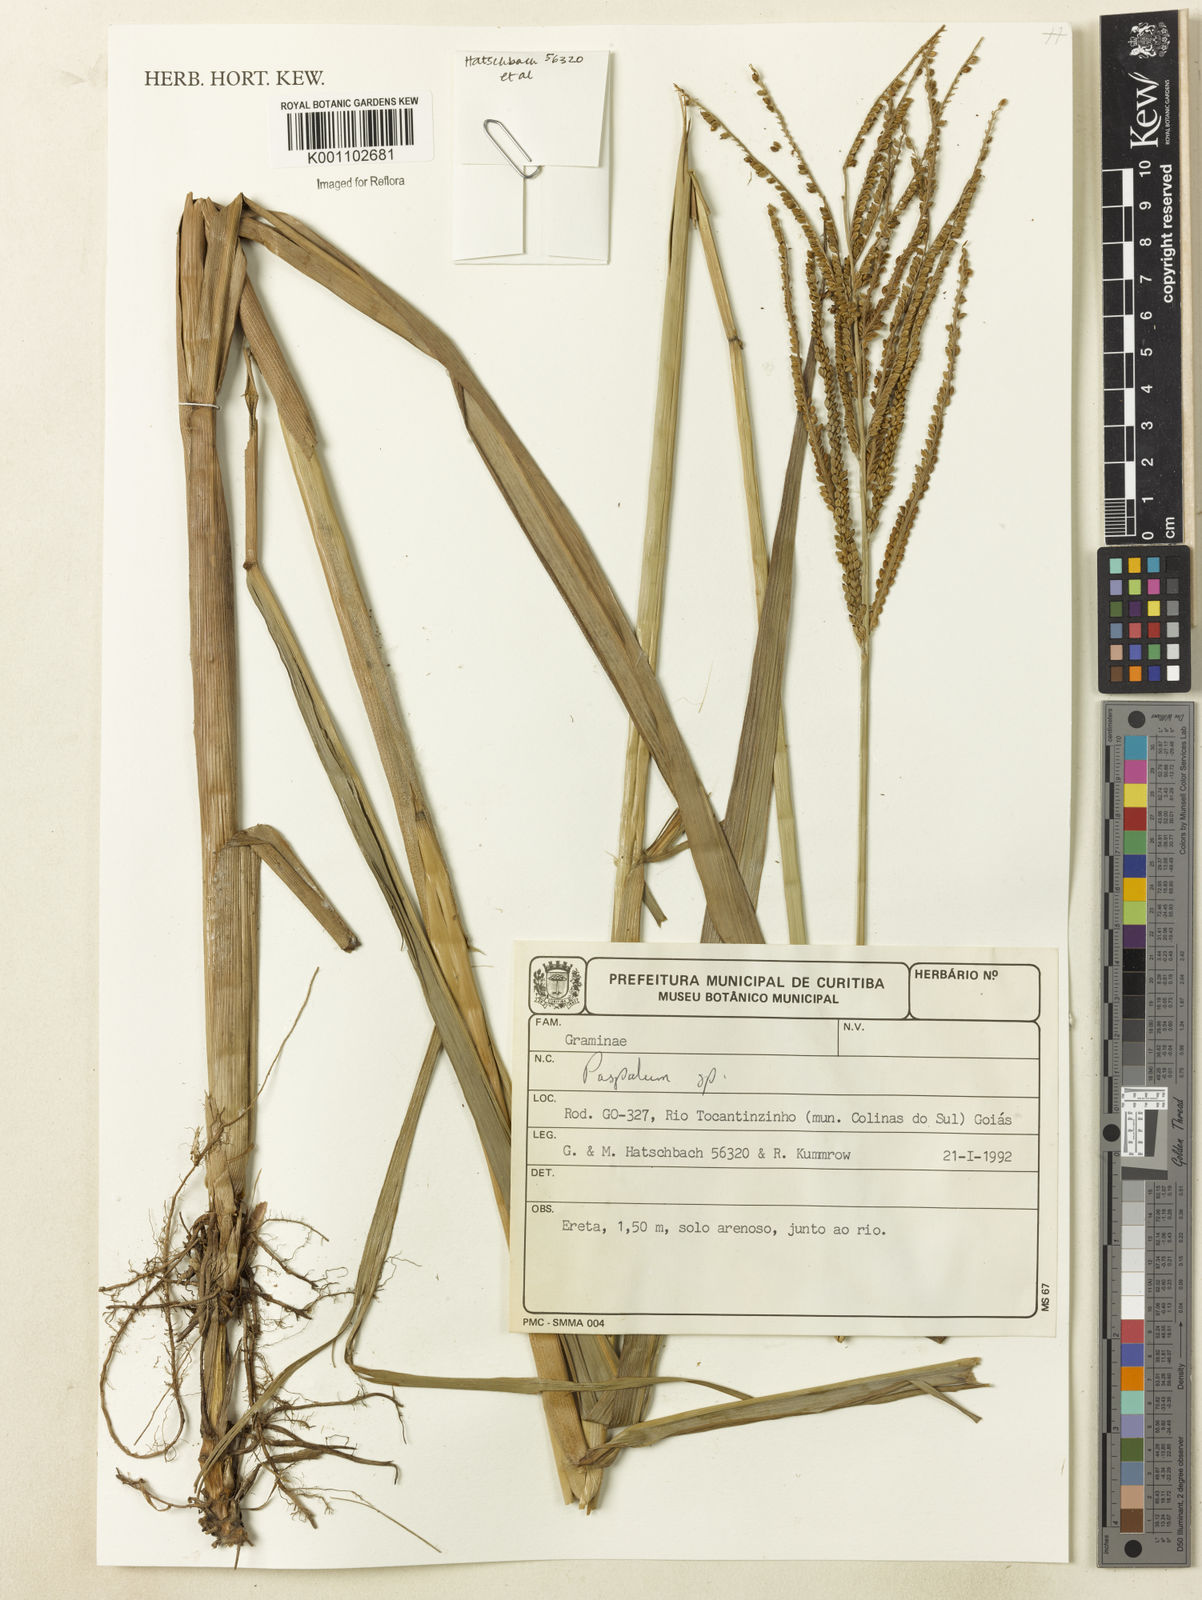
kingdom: Plantae
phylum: Tracheophyta
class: Liliopsida
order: Poales
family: Poaceae
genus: Paspalum
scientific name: Paspalum
